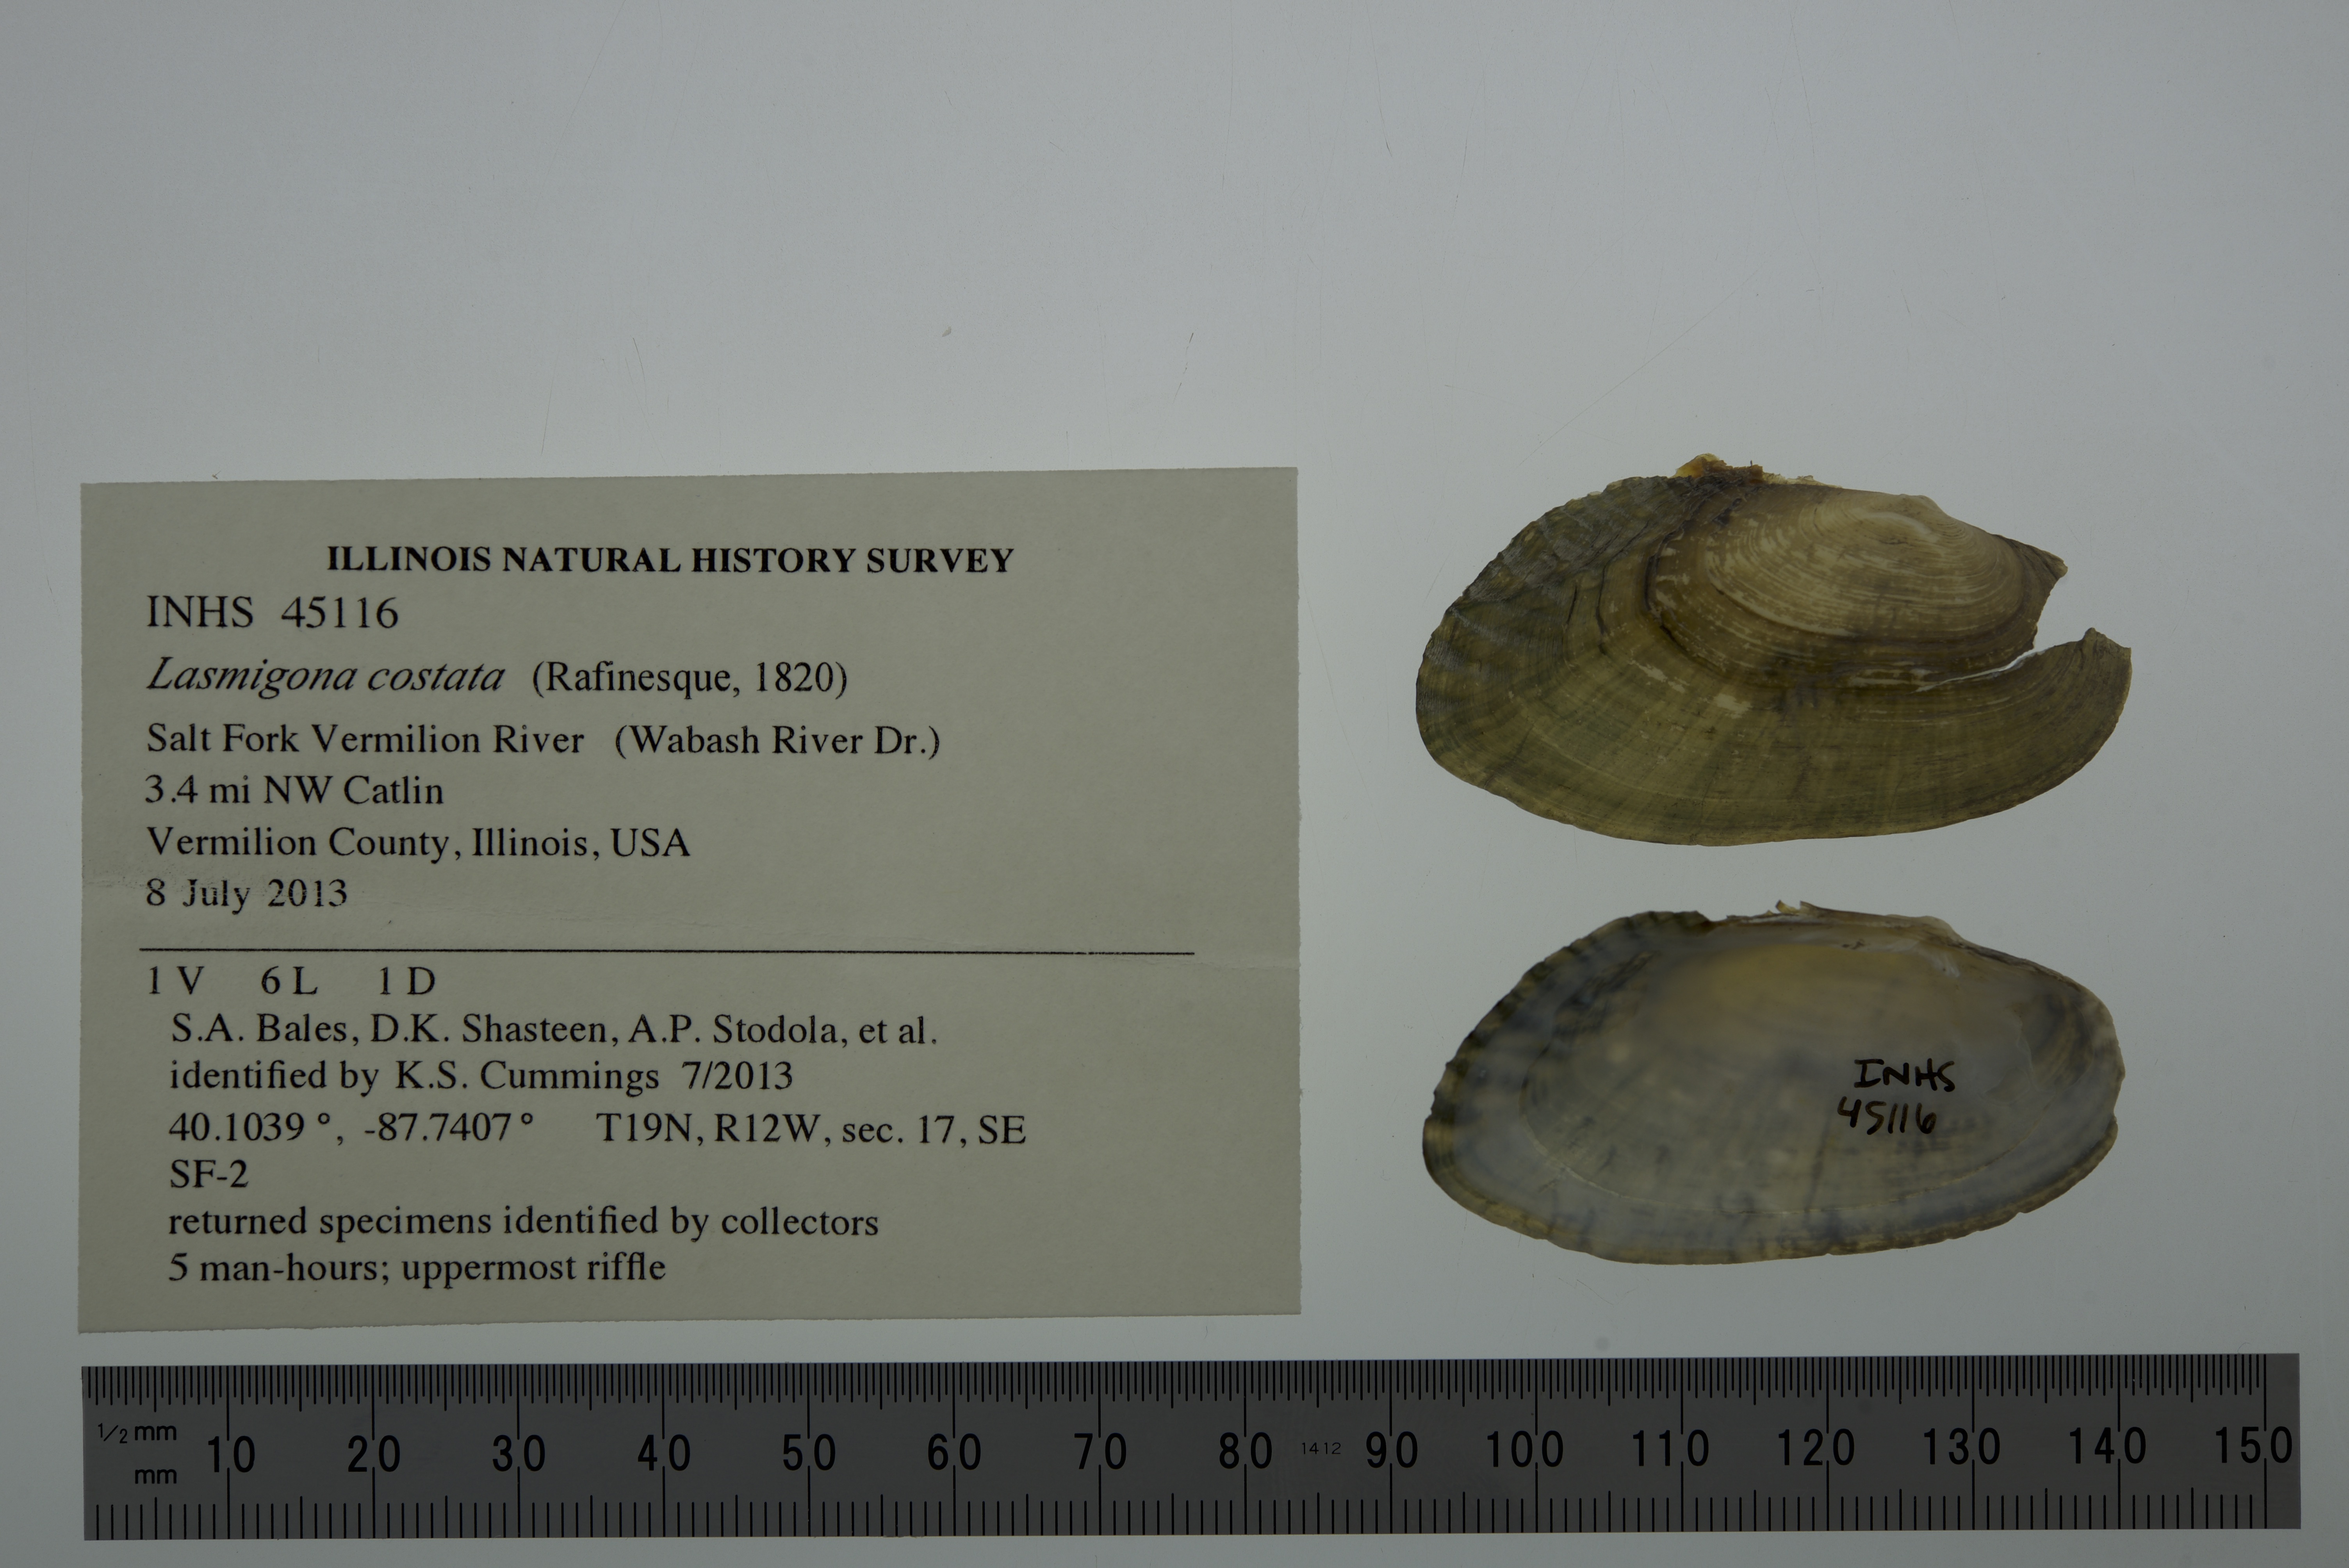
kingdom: Animalia
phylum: Mollusca
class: Bivalvia
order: Unionida
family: Unionidae
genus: Lasmigona
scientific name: Lasmigona costata
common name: Flutedshell
